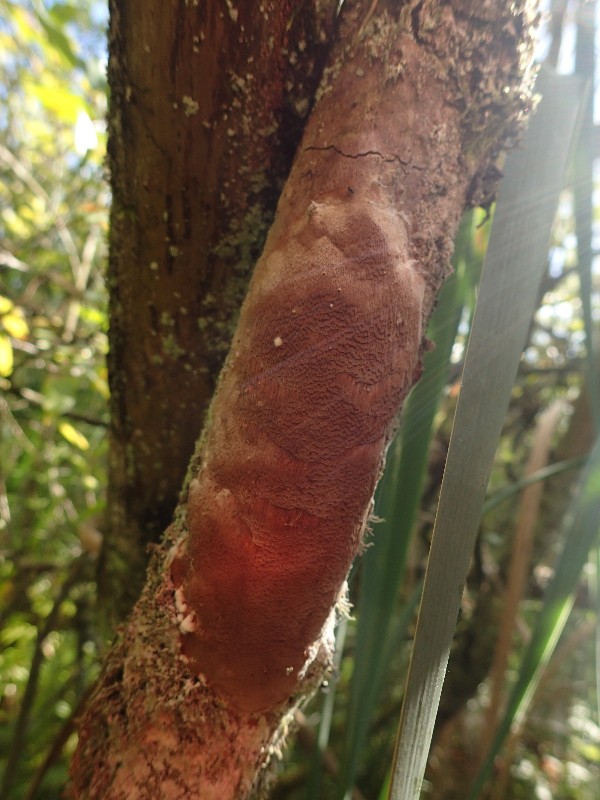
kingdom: Fungi
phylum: Basidiomycota
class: Agaricomycetes
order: Hymenochaetales
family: Hymenochaetaceae
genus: Fomitiporia
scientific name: Fomitiporia punctata
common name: pude-ildporesvamp
